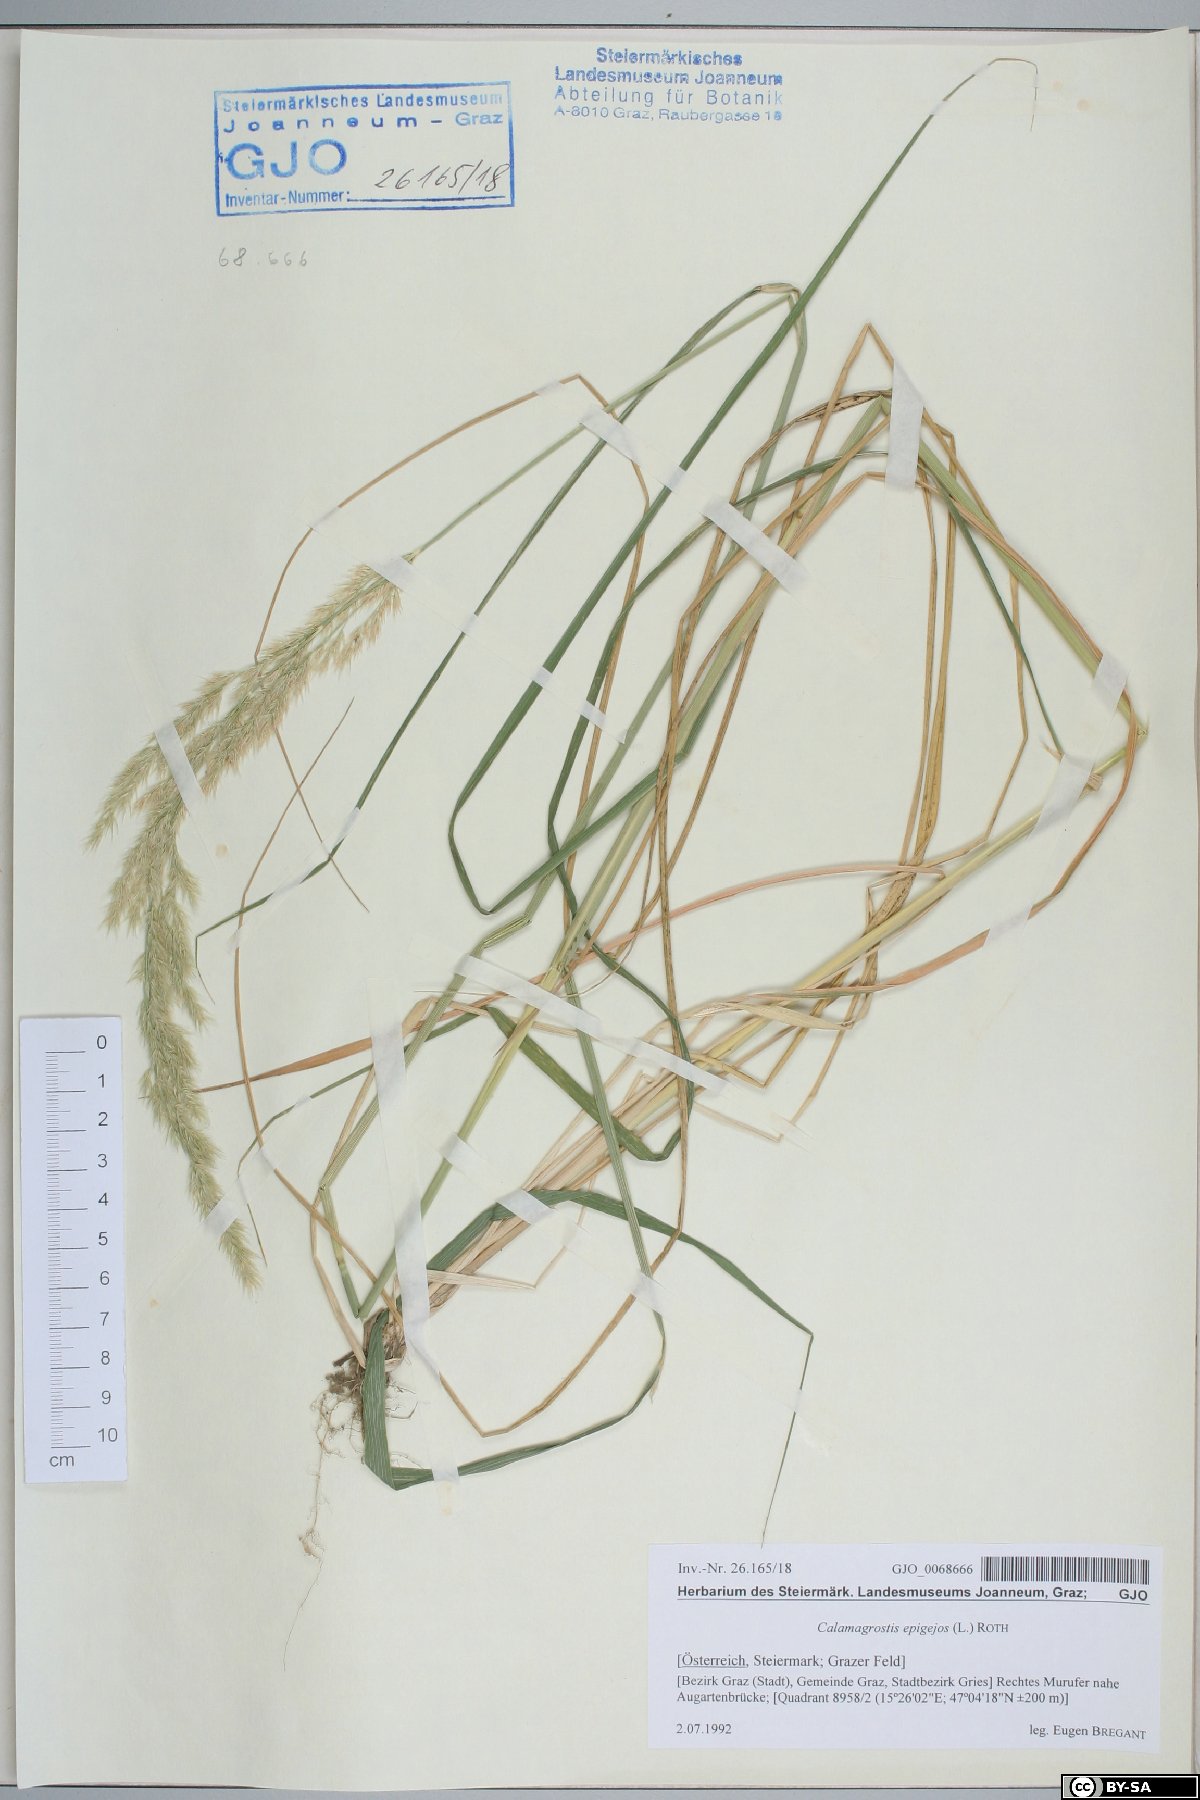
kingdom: Plantae
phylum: Tracheophyta
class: Liliopsida
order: Poales
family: Poaceae
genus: Calamagrostis
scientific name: Calamagrostis epigejos
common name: Wood small-reed
